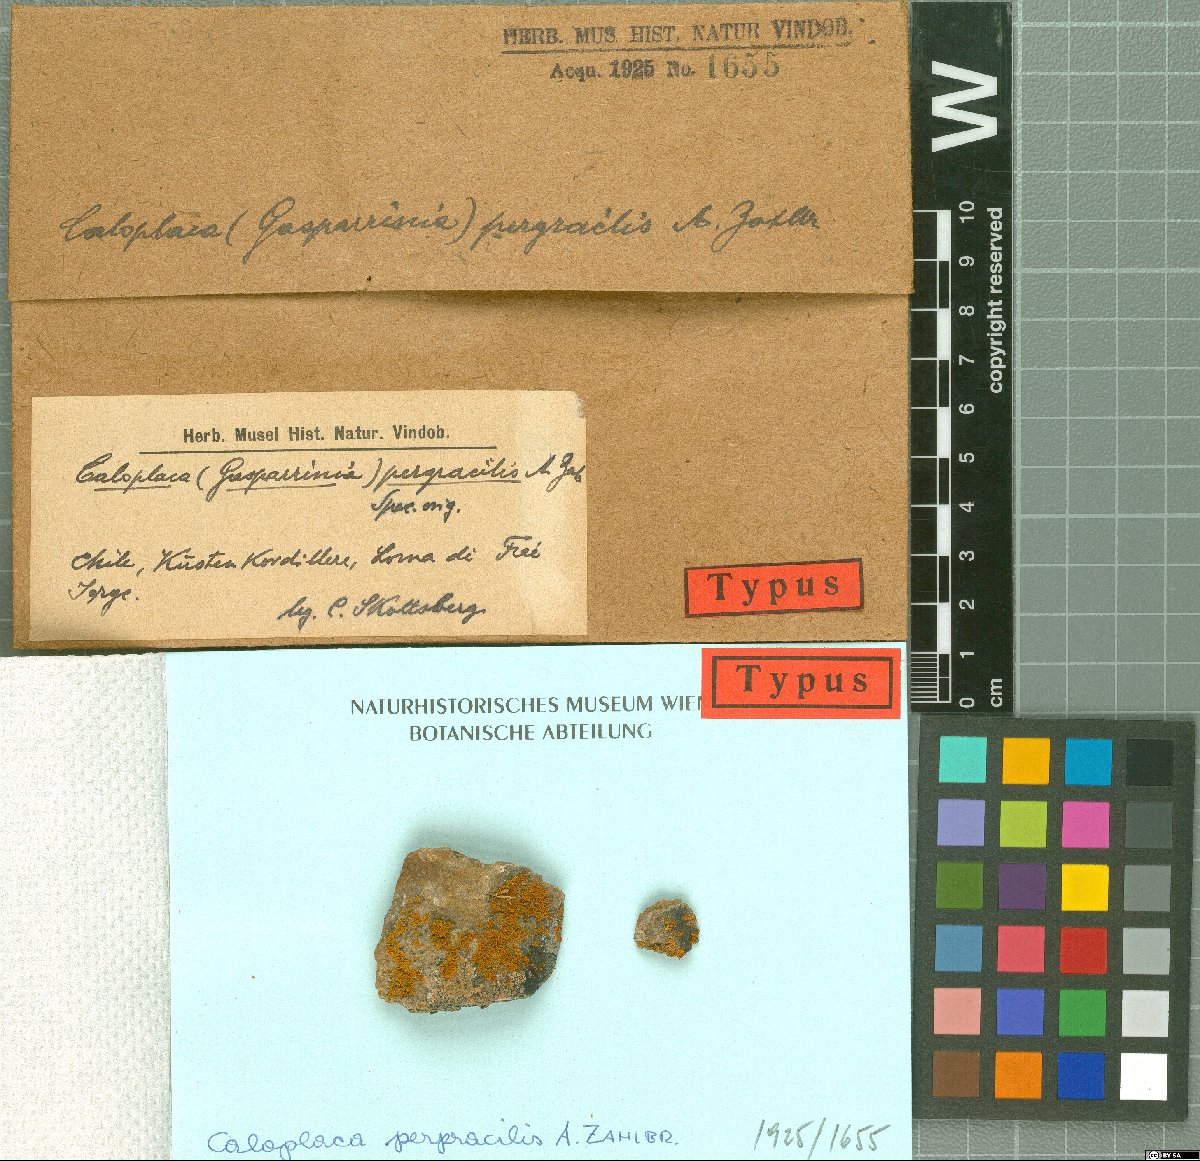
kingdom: Fungi
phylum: Ascomycota
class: Lecanoromycetes
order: Teloschistales
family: Teloschistaceae
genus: Hosseusiella
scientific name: Hosseusiella pergracilis
